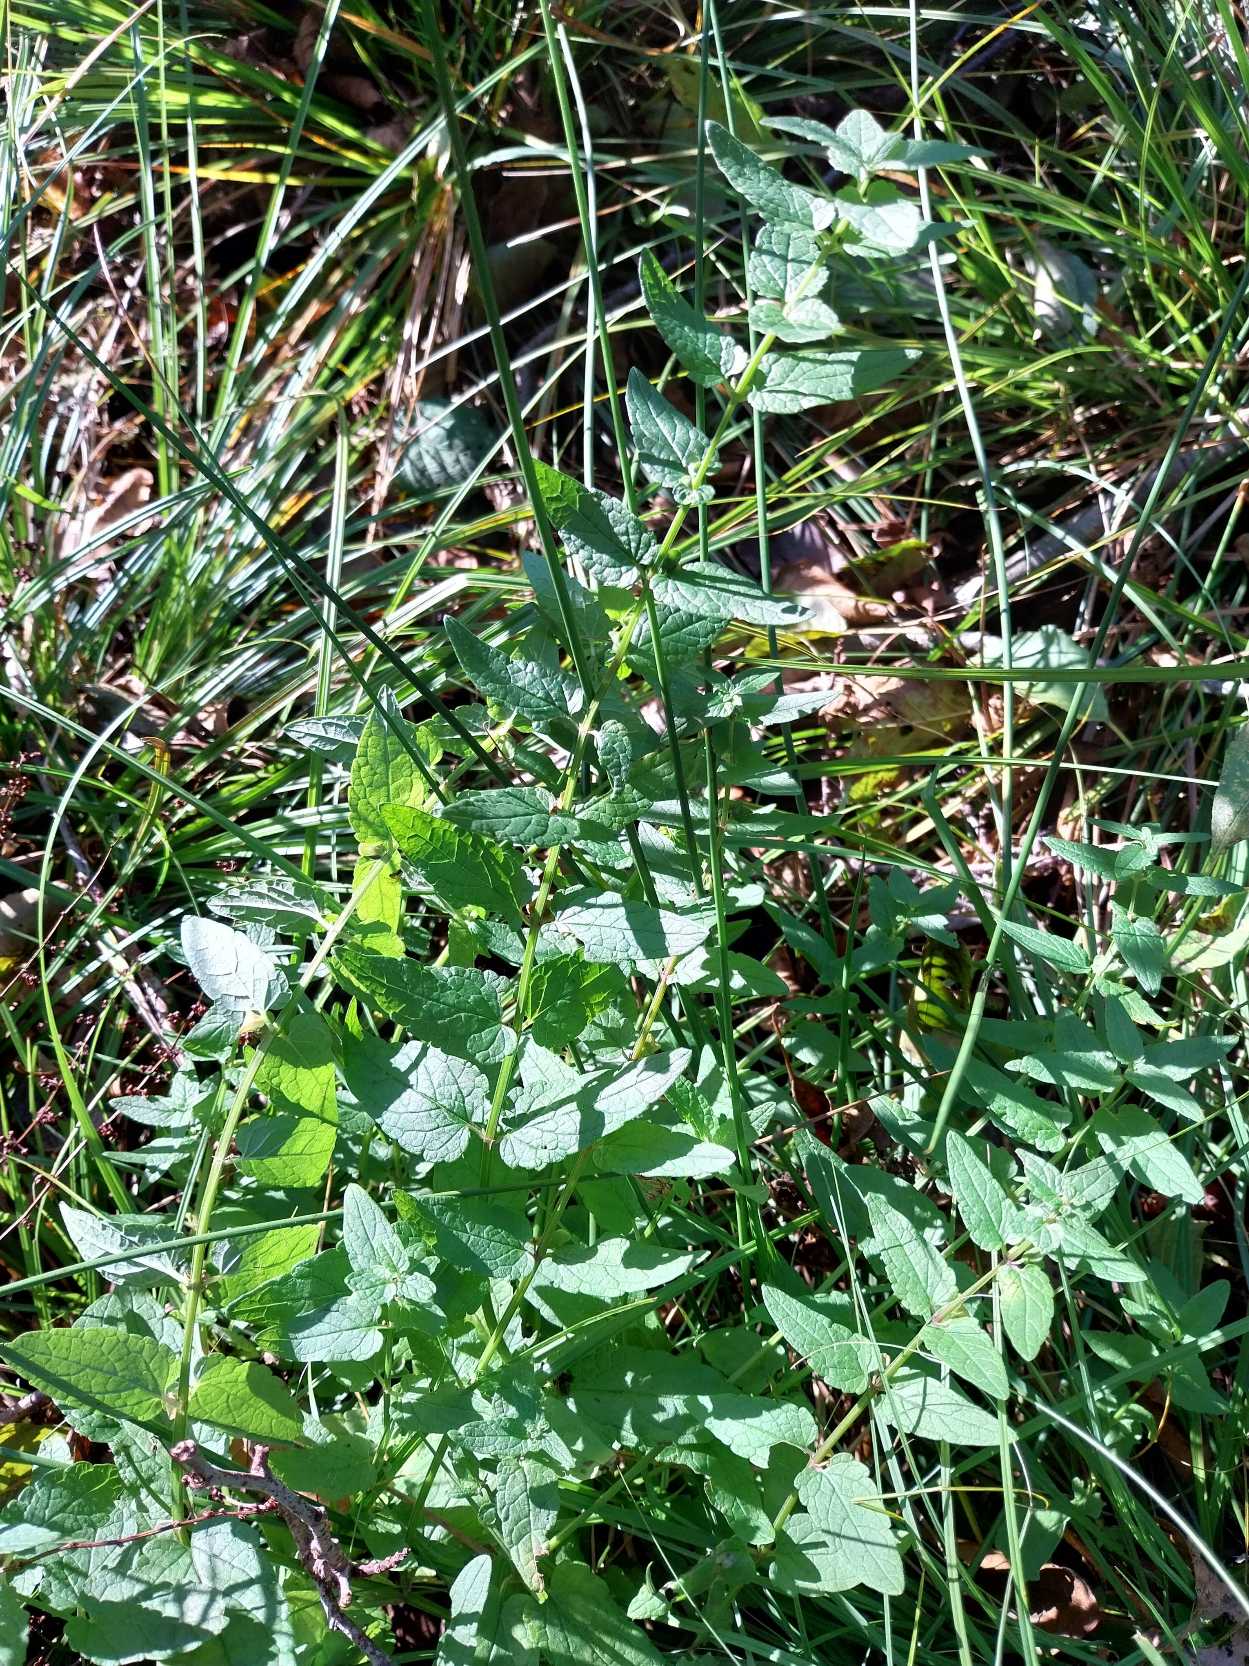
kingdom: Plantae
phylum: Tracheophyta
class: Magnoliopsida
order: Lamiales
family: Lamiaceae
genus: Scutellaria
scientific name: Scutellaria galericulata
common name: Almindelig skjolddrager
